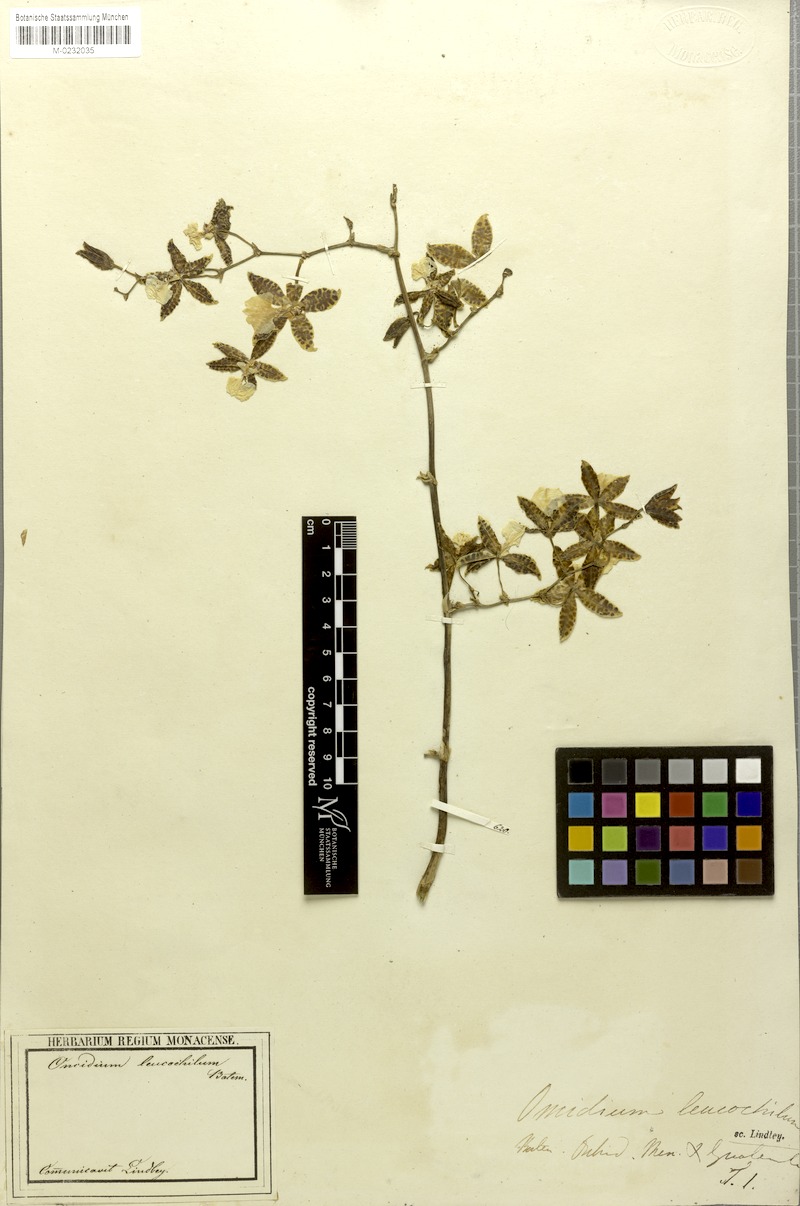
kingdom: Plantae
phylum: Tracheophyta
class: Liliopsida
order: Asparagales
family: Orchidaceae
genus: Oncidium
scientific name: Oncidium leucochilum
